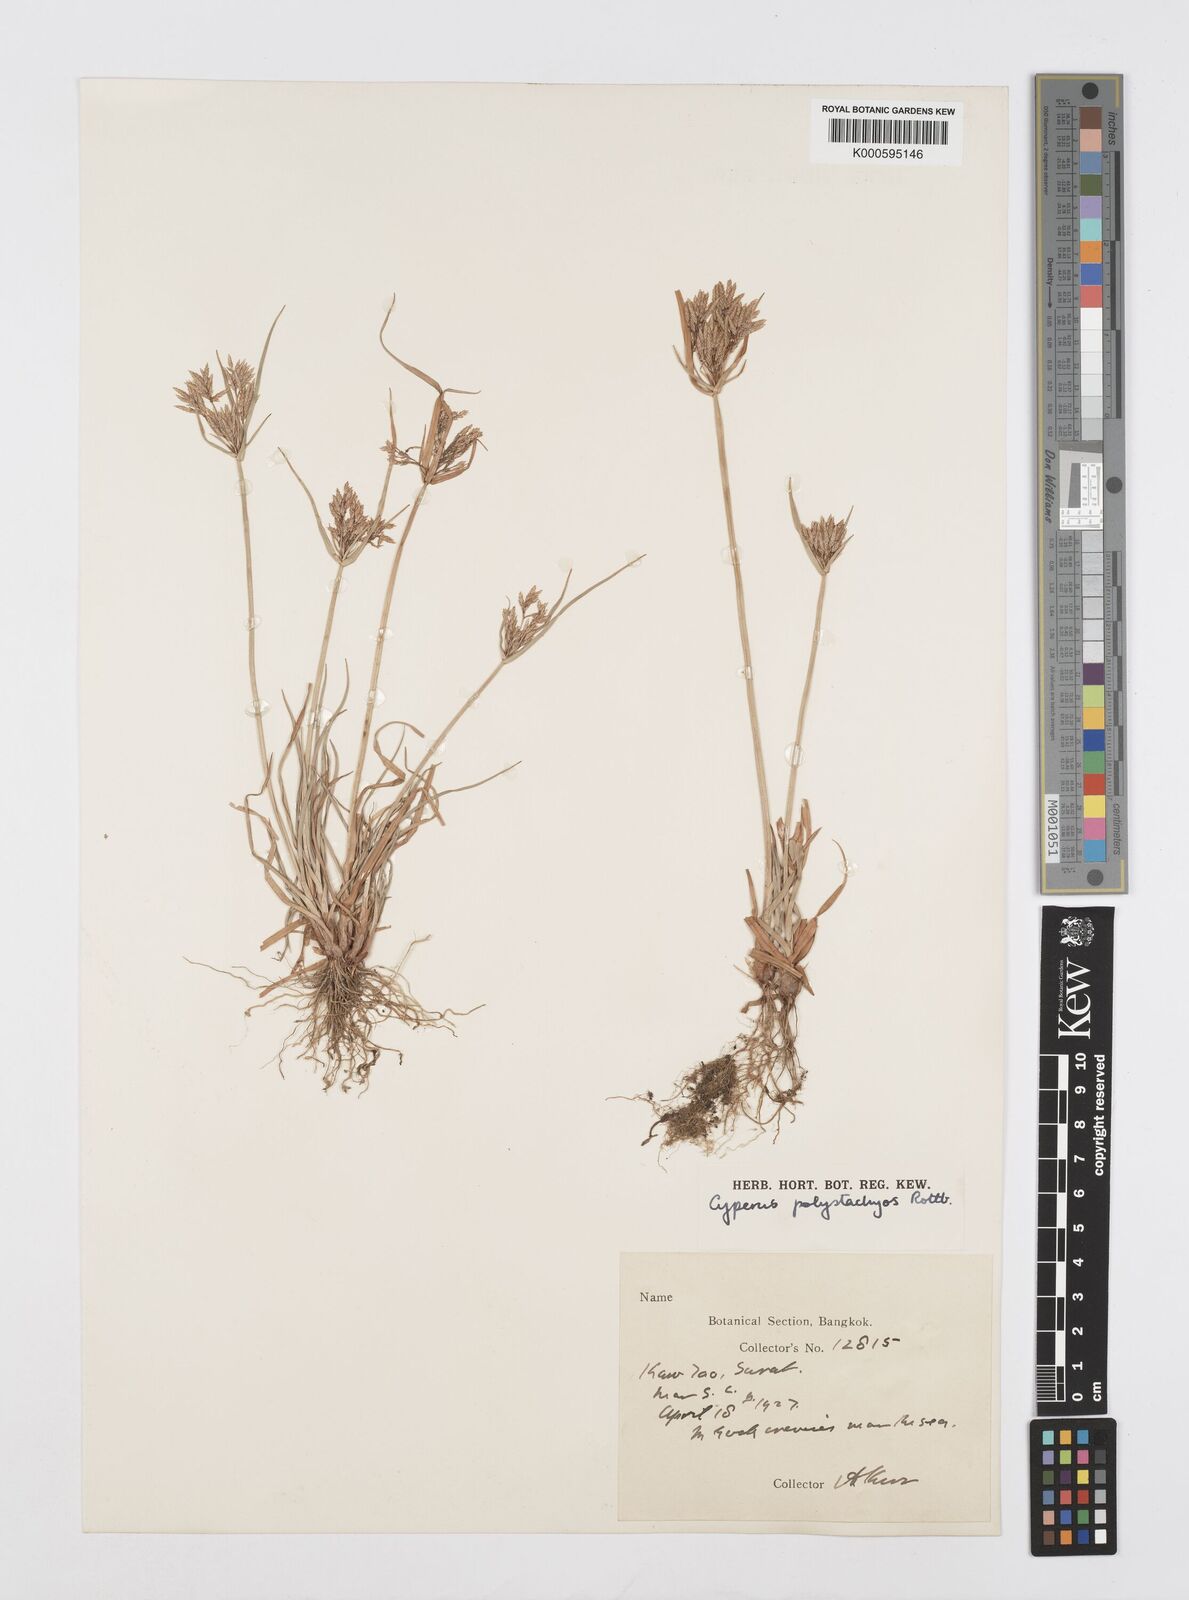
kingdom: Plantae
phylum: Tracheophyta
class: Liliopsida
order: Poales
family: Cyperaceae
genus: Cyperus
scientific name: Cyperus polystachyos
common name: Bunchy flat sedge
